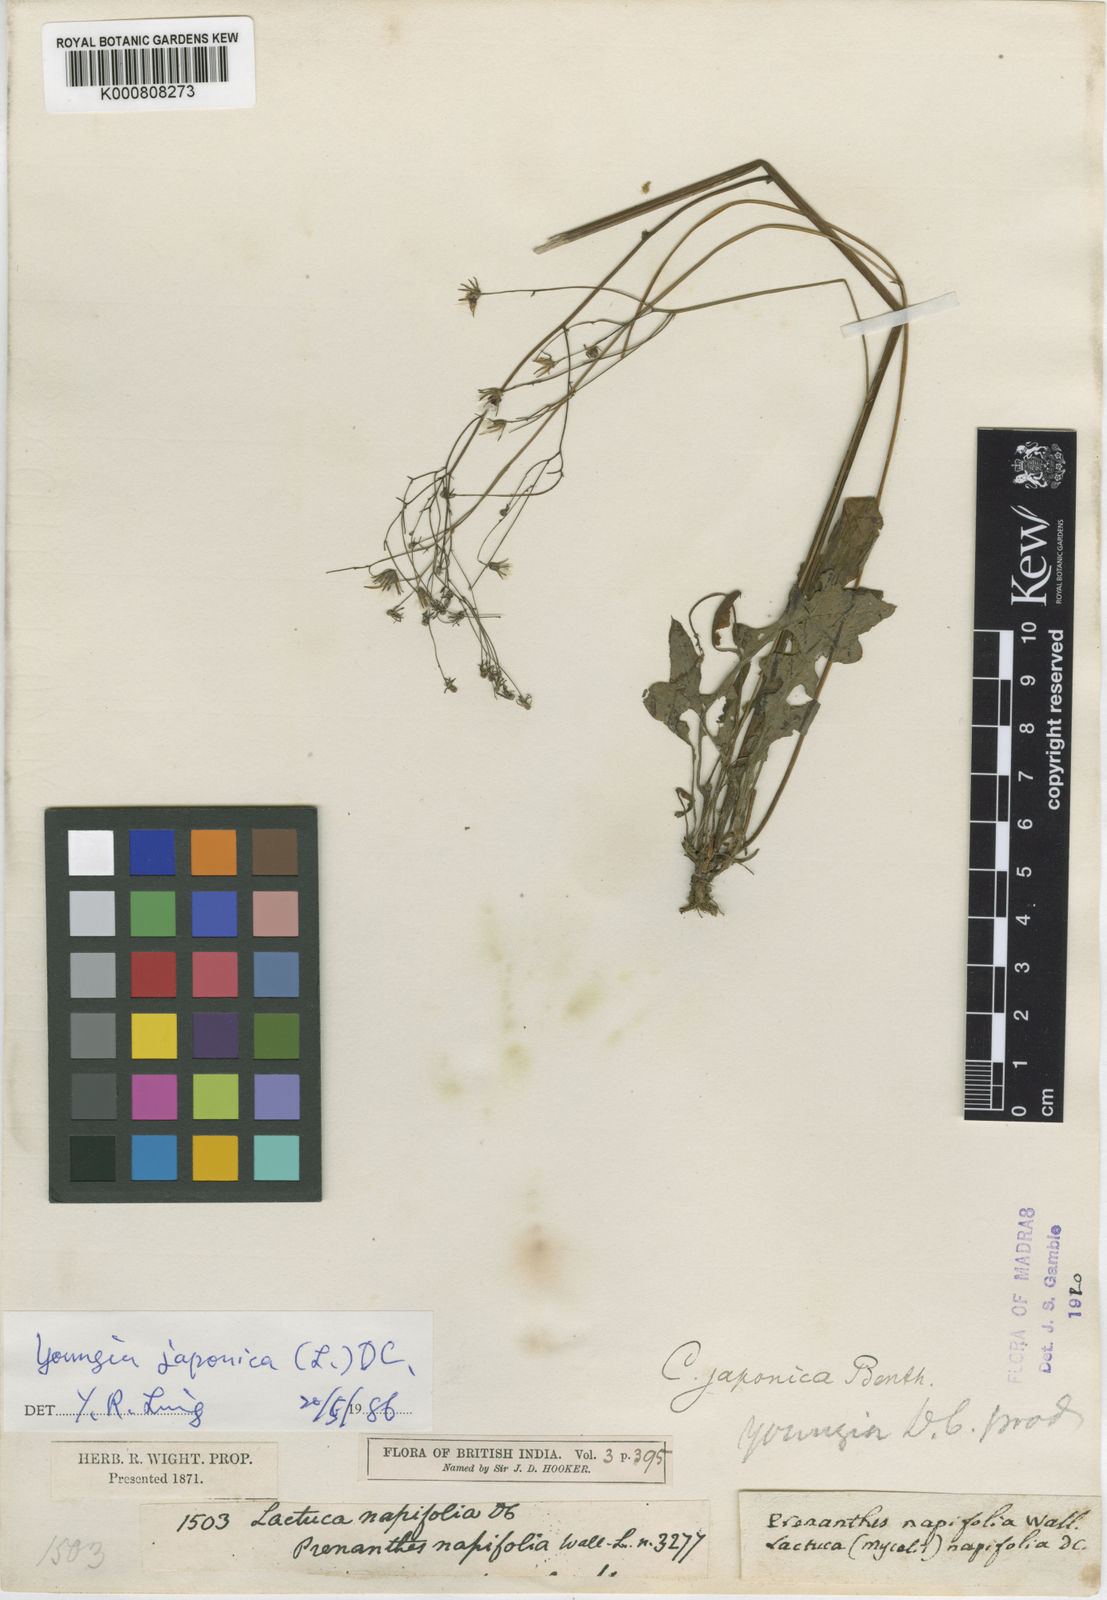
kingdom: Plantae
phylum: Tracheophyta
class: Magnoliopsida
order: Asterales
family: Asteraceae
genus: Youngia
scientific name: Youngia japonica
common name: Oriental false hawksbeard
